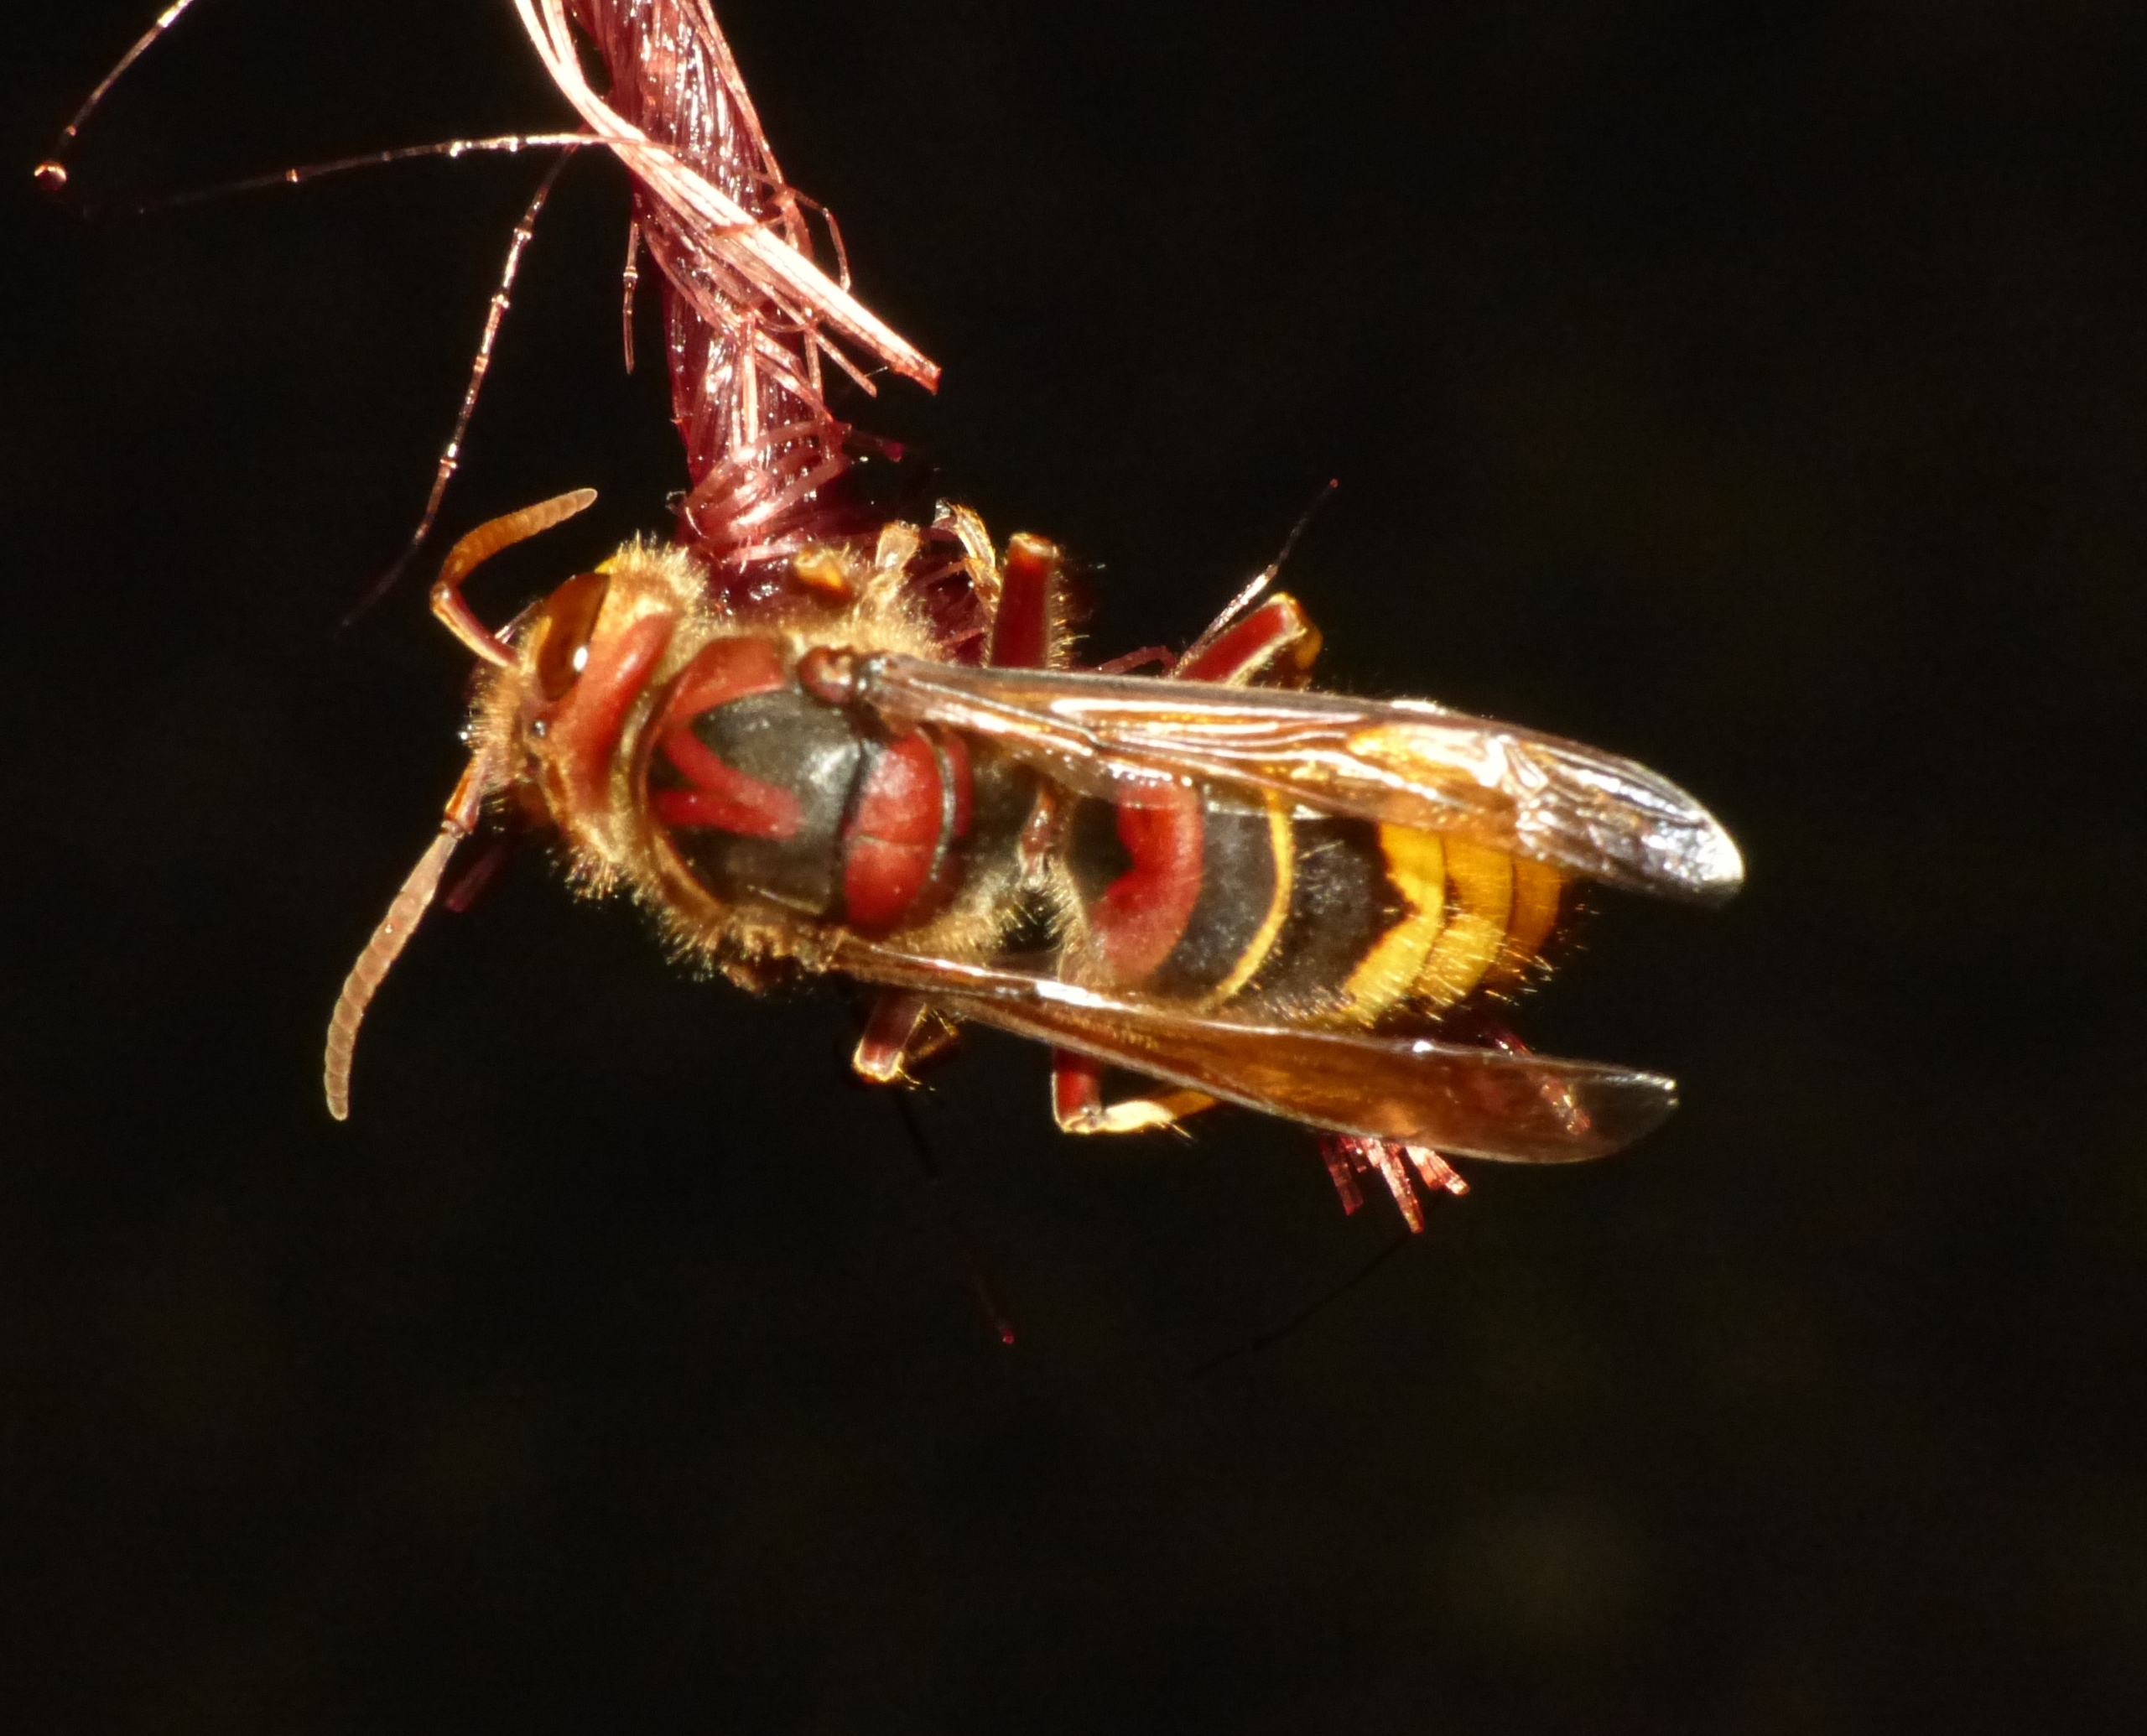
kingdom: Animalia
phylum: Arthropoda
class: Insecta
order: Hymenoptera
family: Vespidae
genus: Vespa
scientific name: Vespa crabro
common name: Stor gedehams
